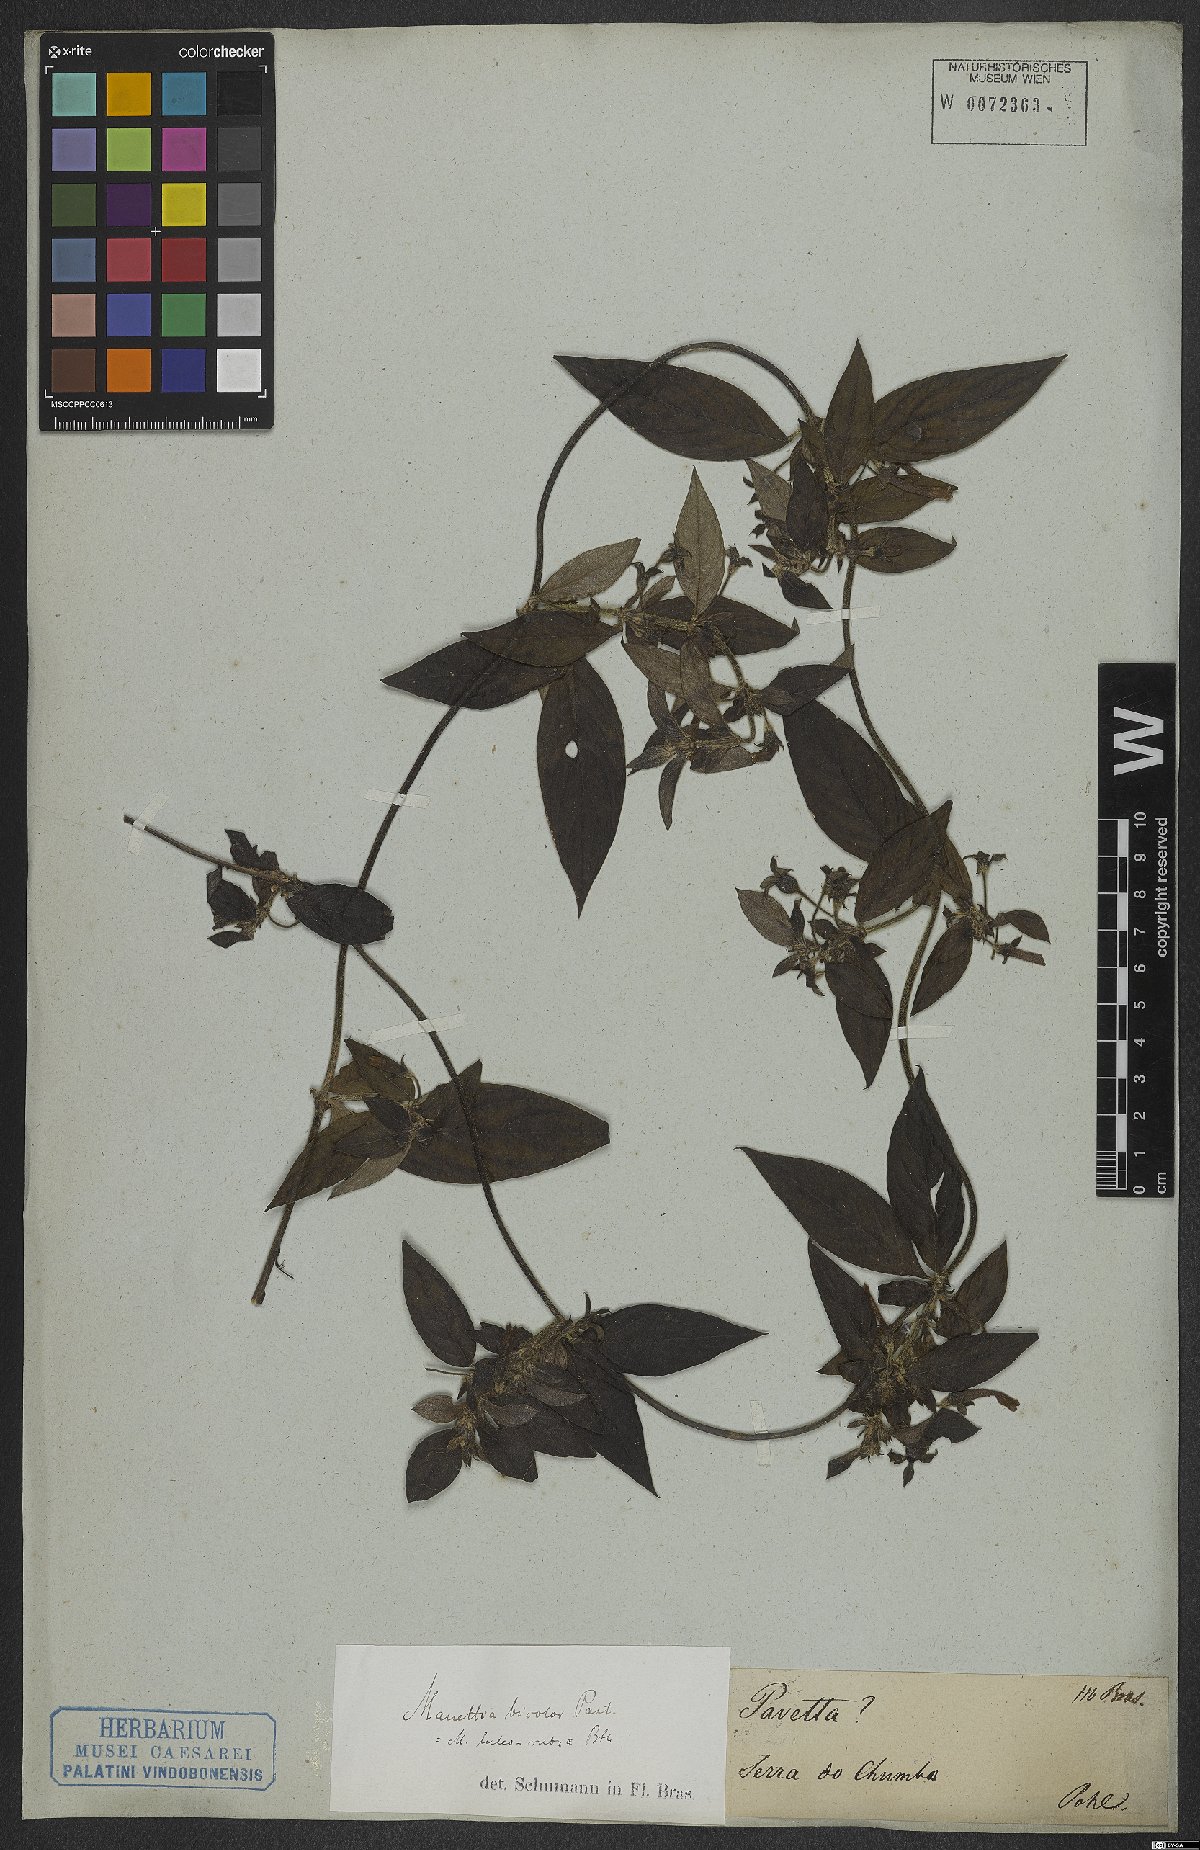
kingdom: Plantae
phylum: Tracheophyta
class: Magnoliopsida
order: Gentianales
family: Rubiaceae
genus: Manettia
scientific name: Manettia luteorubra
